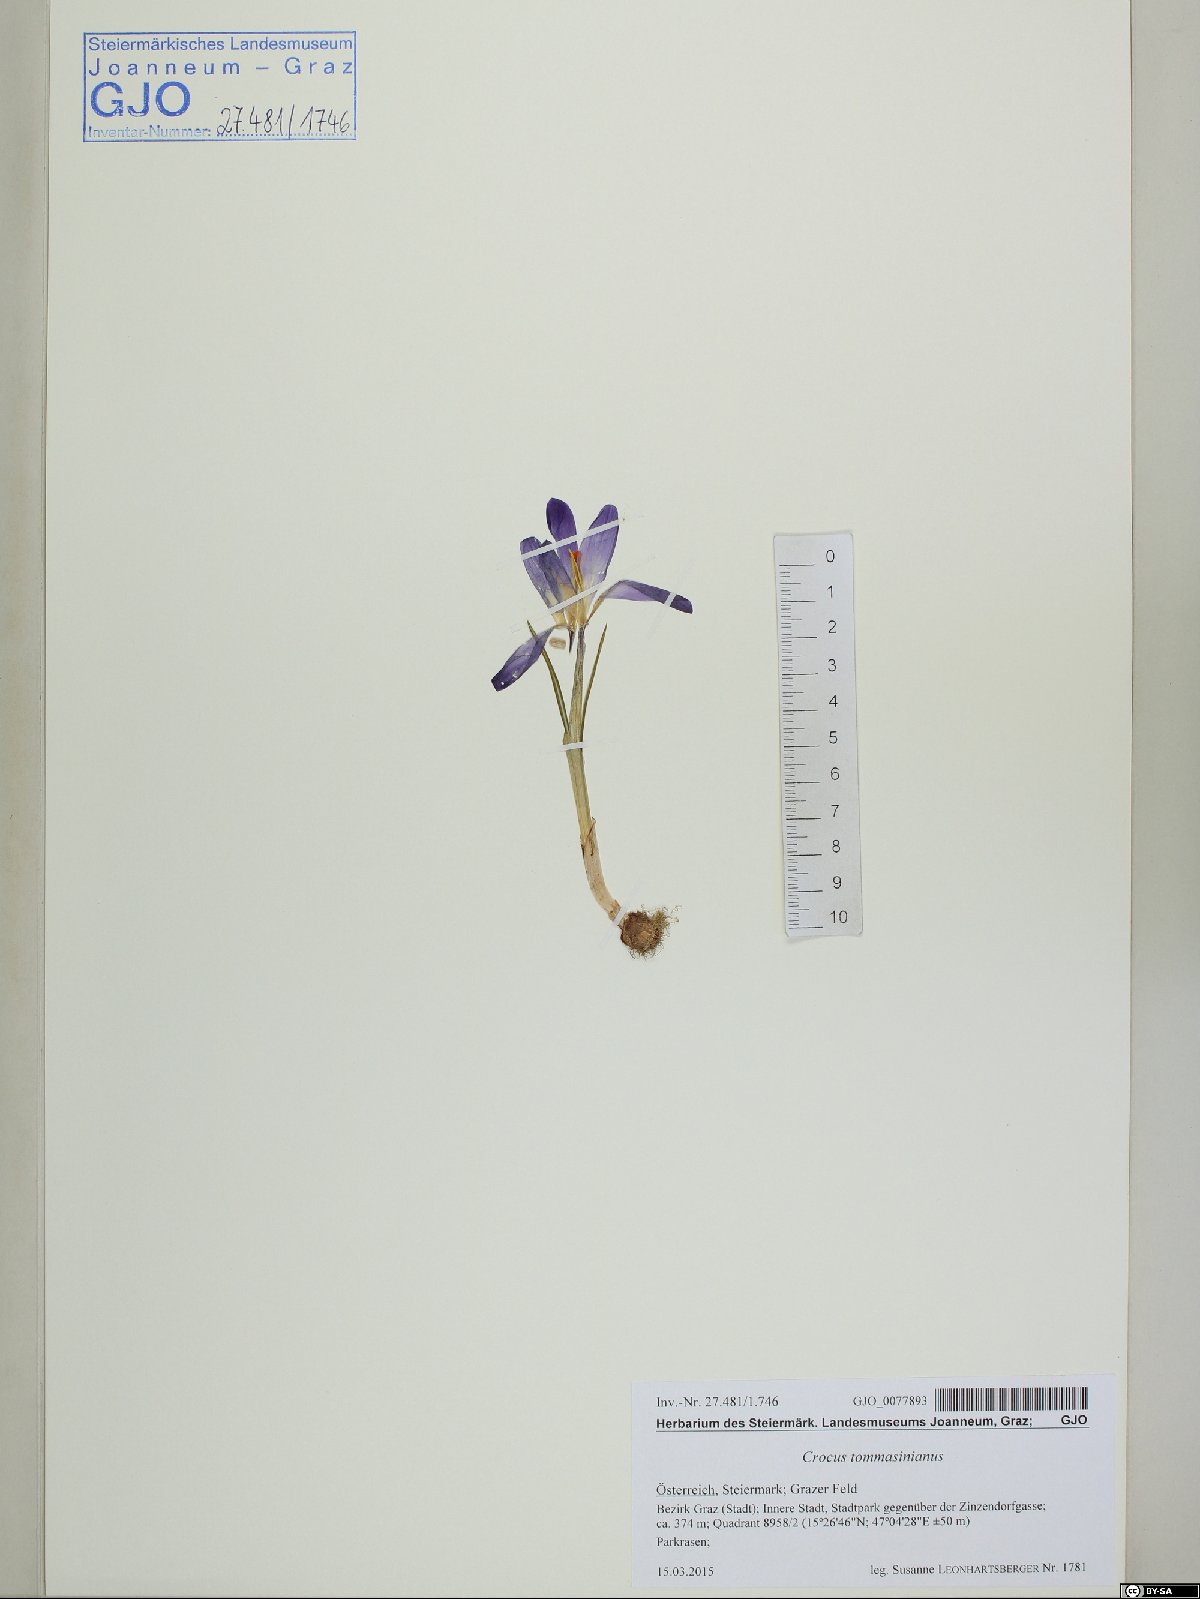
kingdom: Plantae
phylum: Tracheophyta
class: Liliopsida
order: Asparagales
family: Iridaceae
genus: Crocus
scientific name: Crocus tommasinianus
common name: Early crocus
